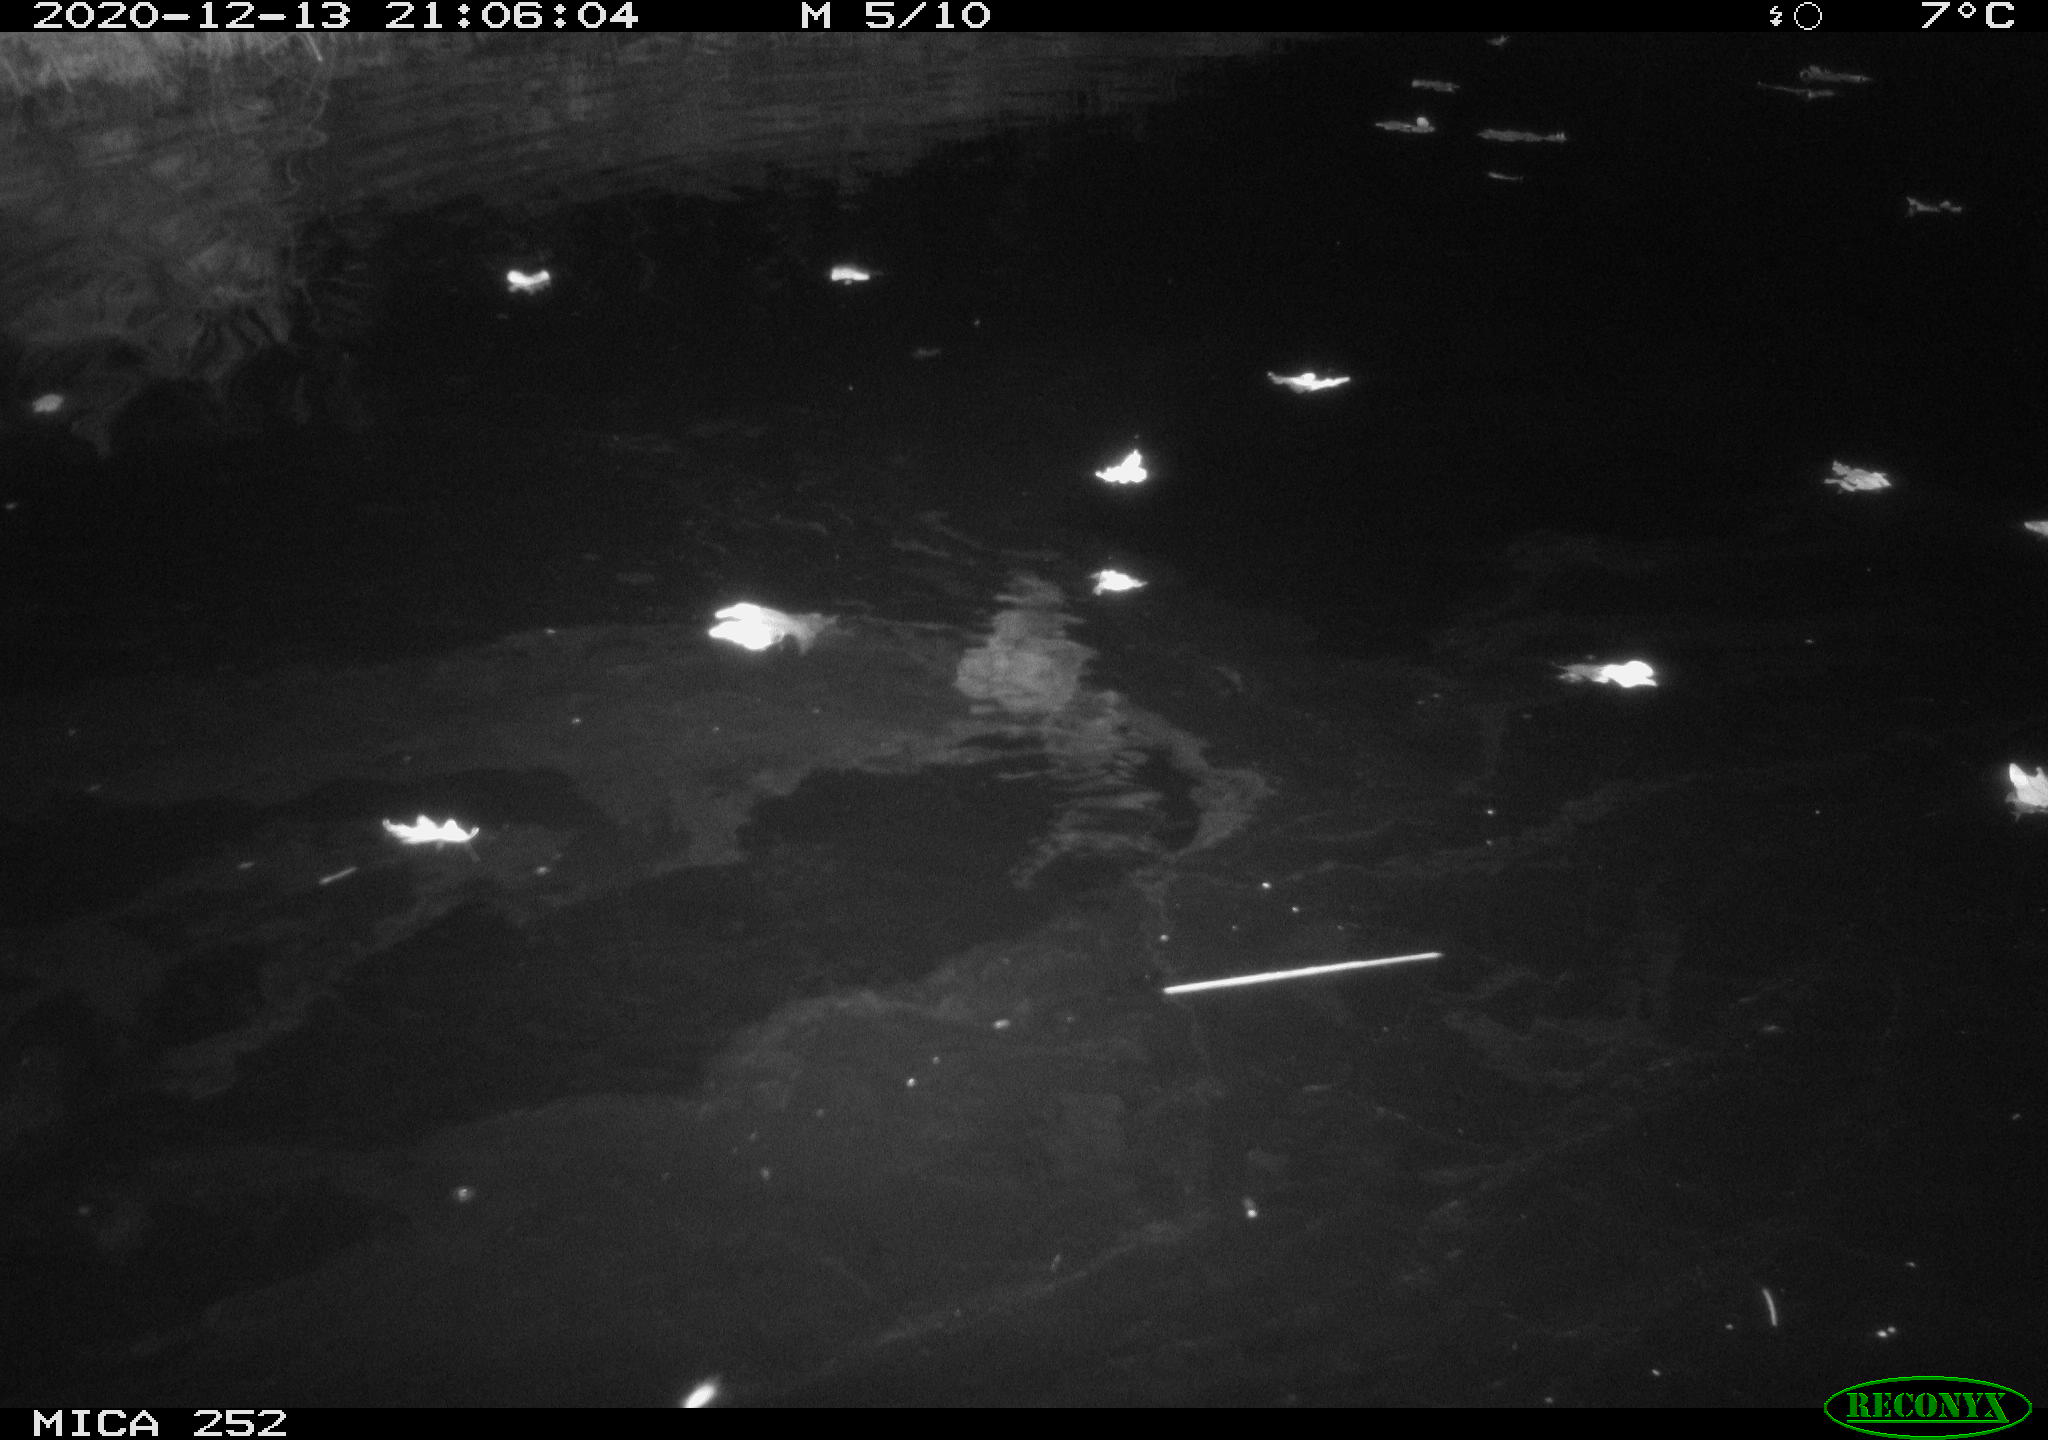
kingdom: Animalia
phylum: Chordata
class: Mammalia
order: Rodentia
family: Castoridae
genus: Castor
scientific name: Castor fiber
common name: Eurasian beaver
